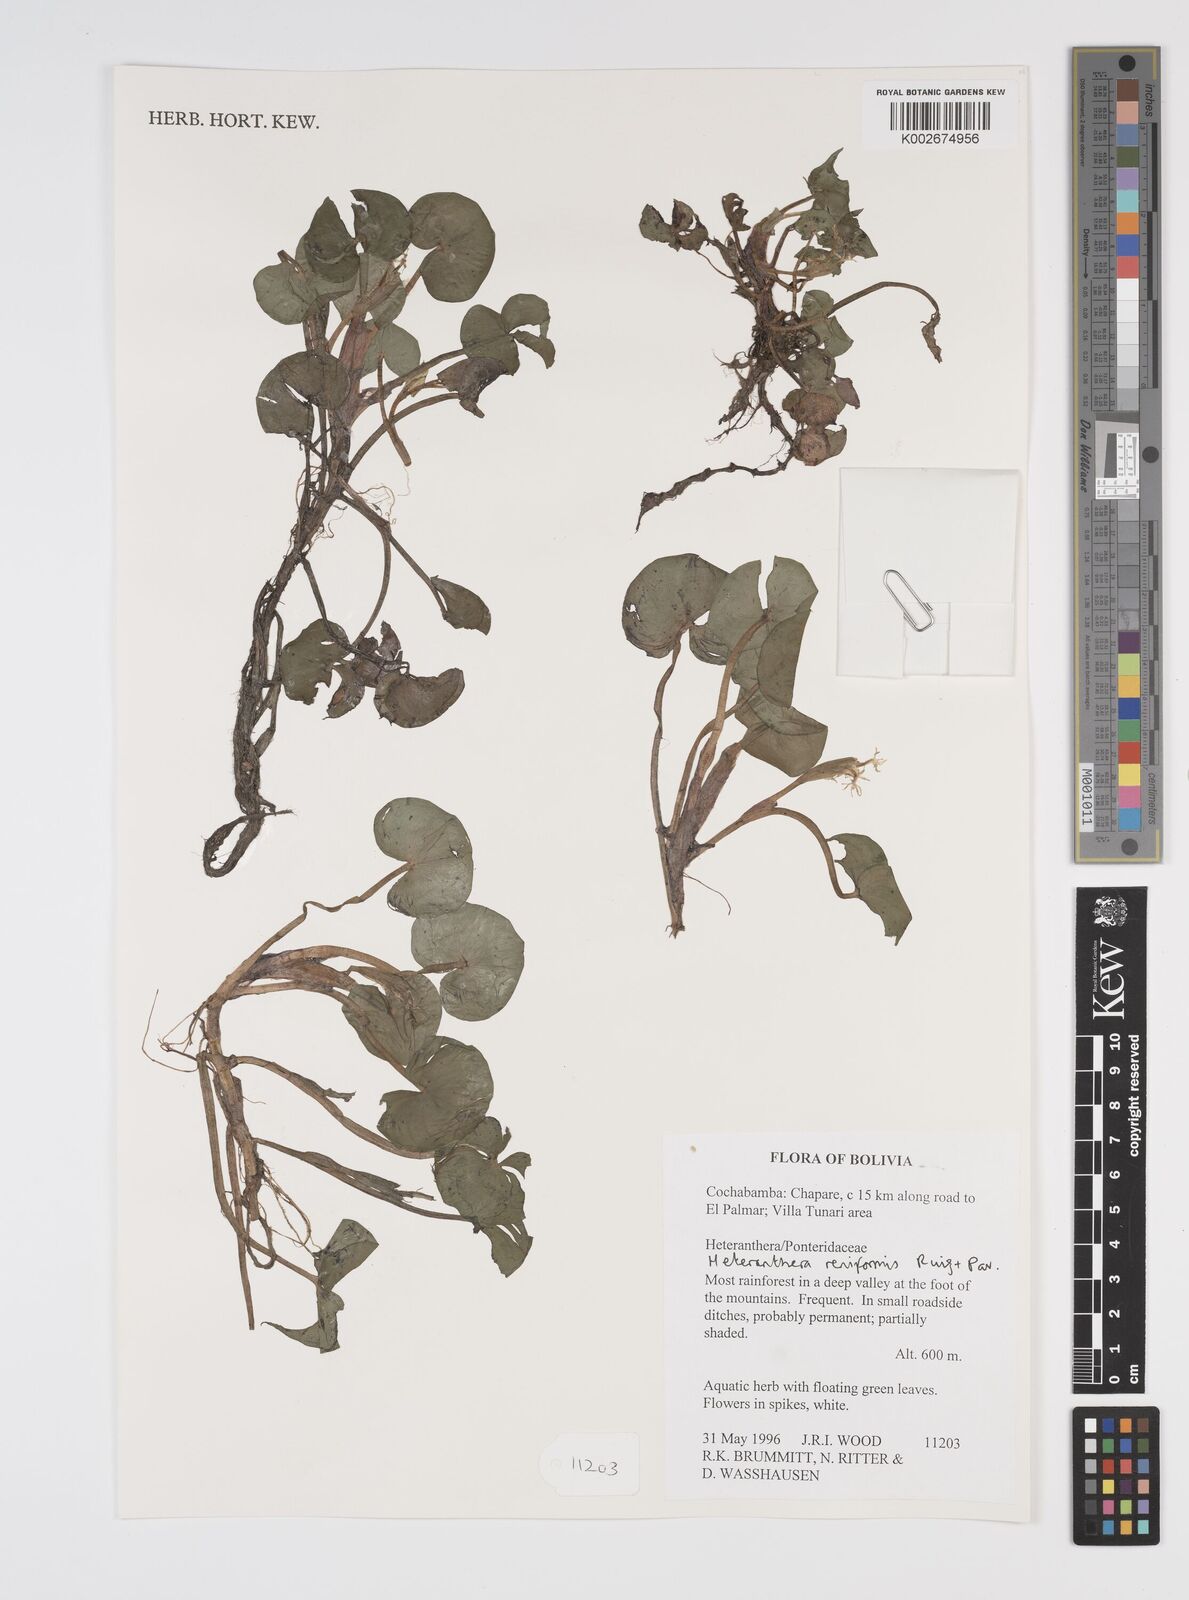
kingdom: Plantae
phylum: Tracheophyta
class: Liliopsida
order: Commelinales
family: Pontederiaceae
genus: Heteranthera
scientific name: Heteranthera reniformis
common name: Kidneyleaf mudplantain
